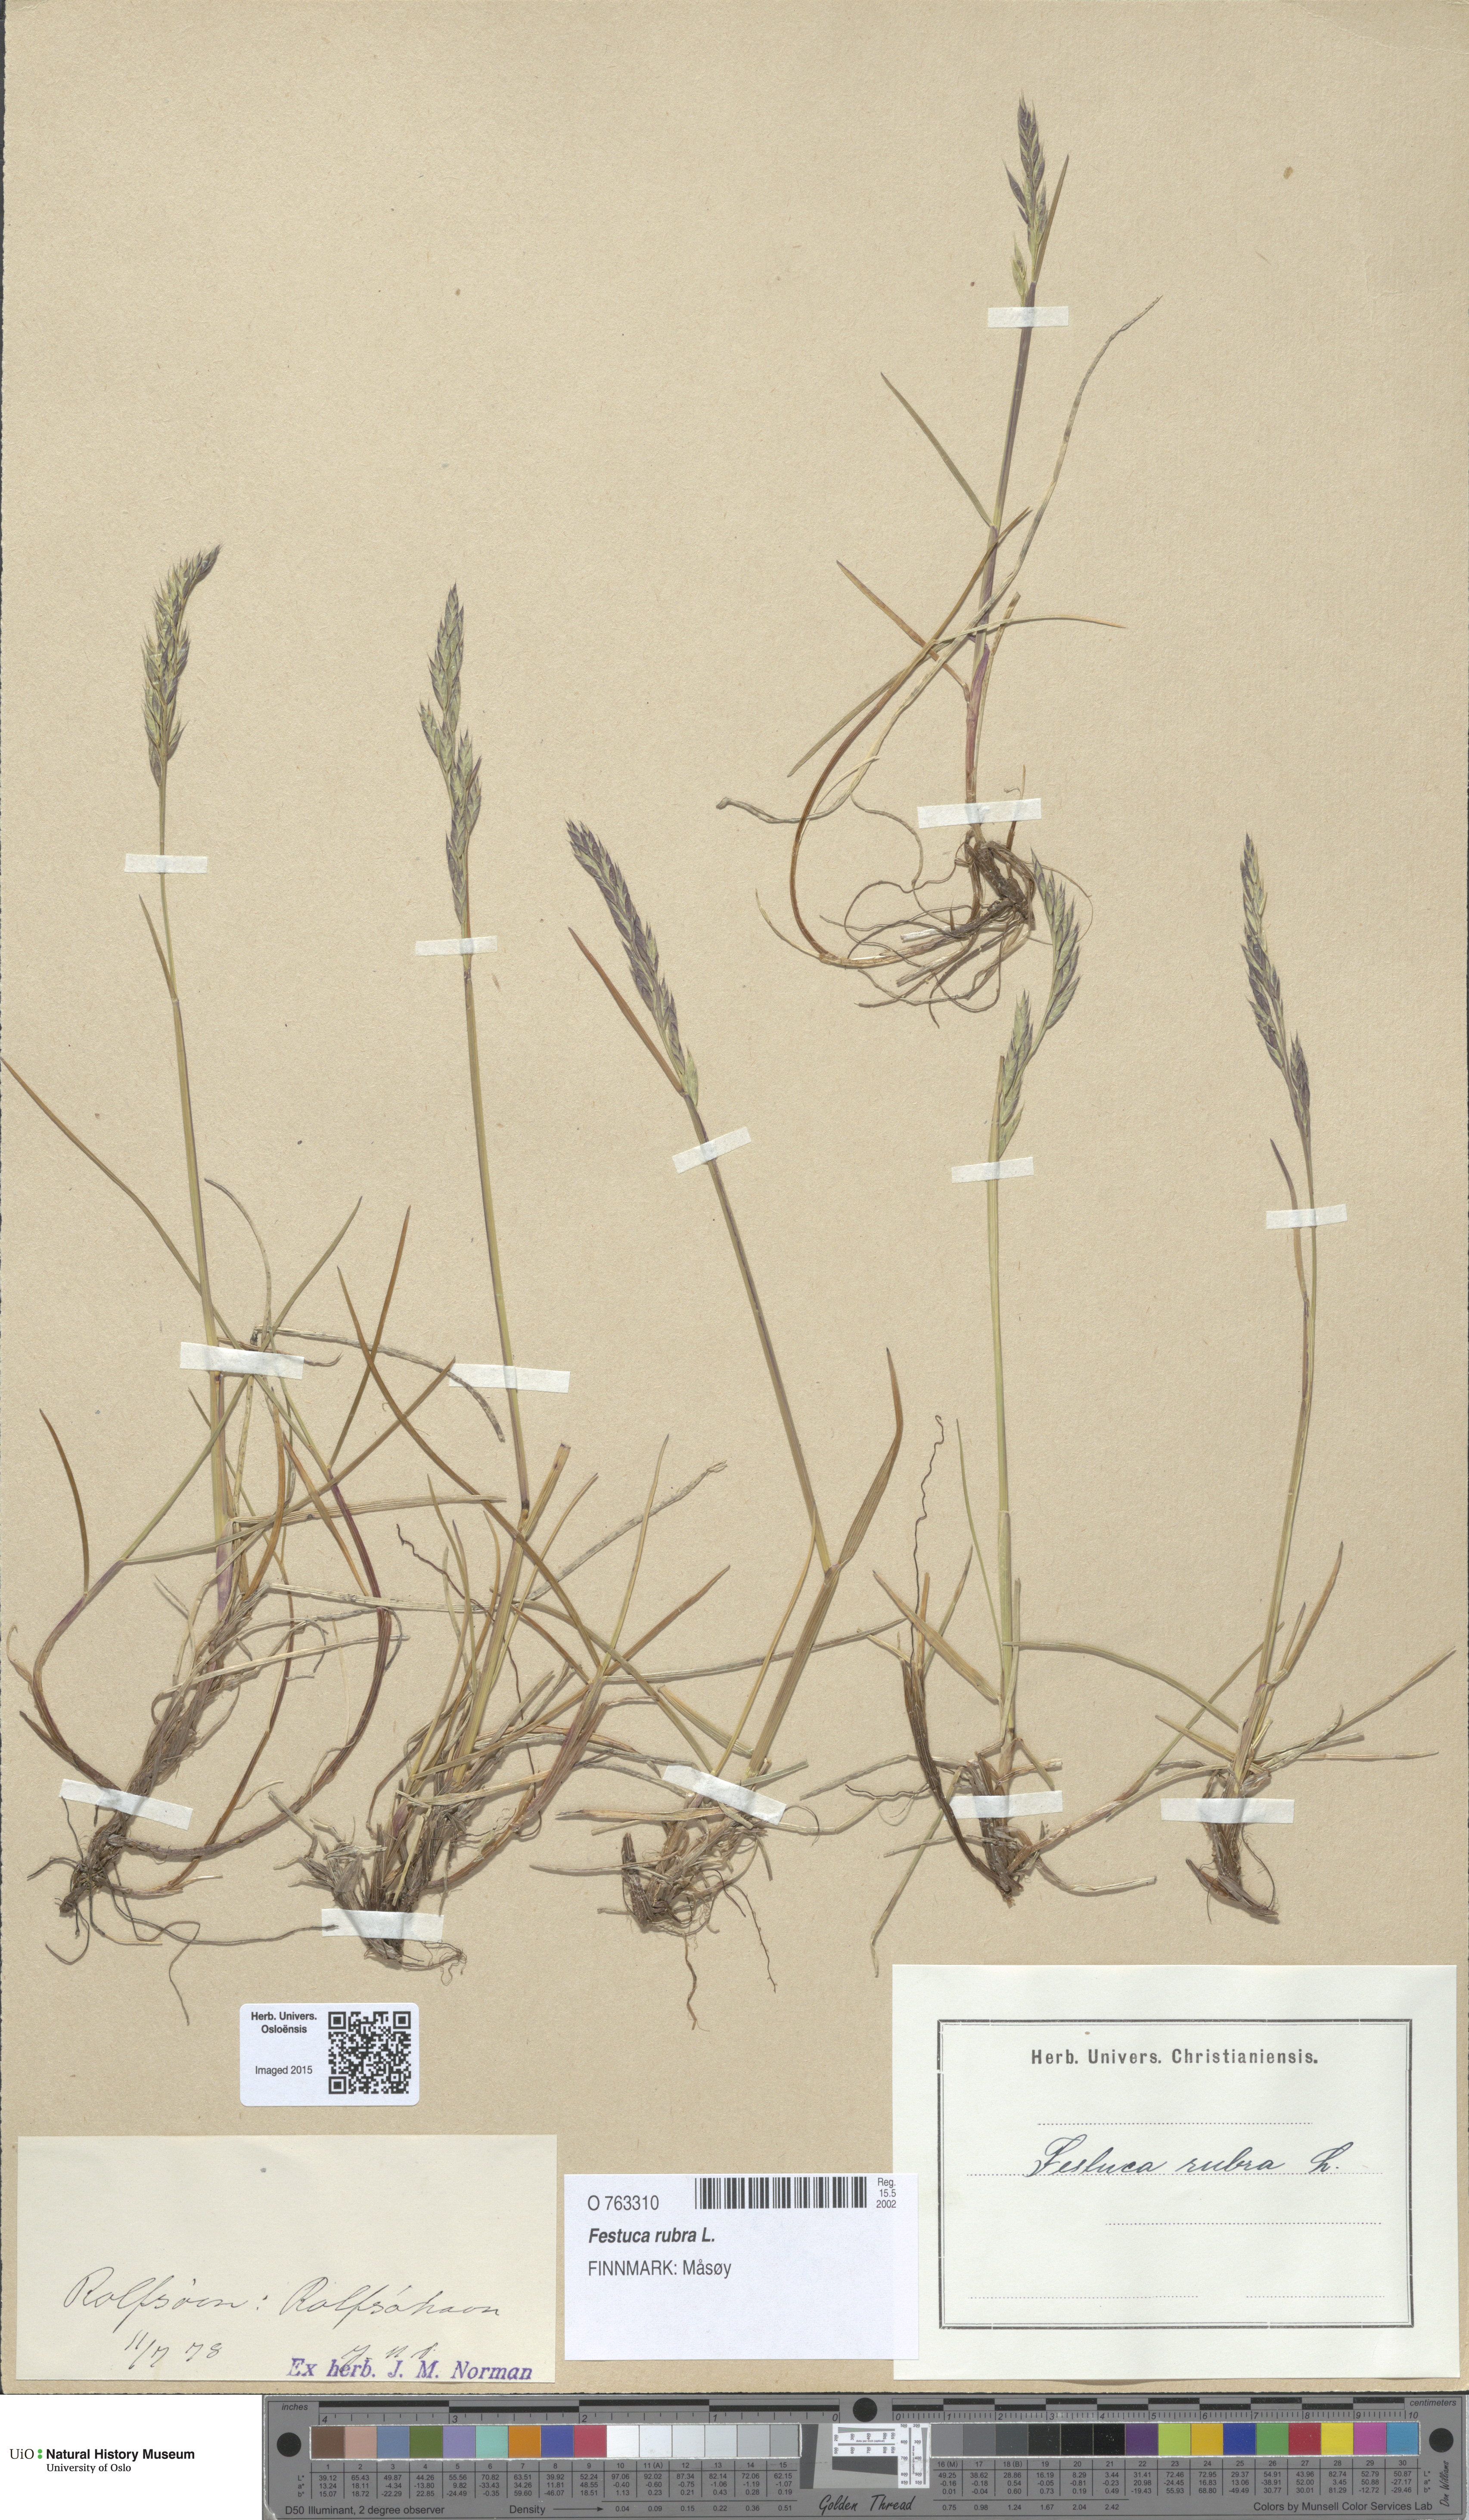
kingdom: Plantae
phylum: Tracheophyta
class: Liliopsida
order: Poales
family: Poaceae
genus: Festuca
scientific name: Festuca rubra
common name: Red fescue
